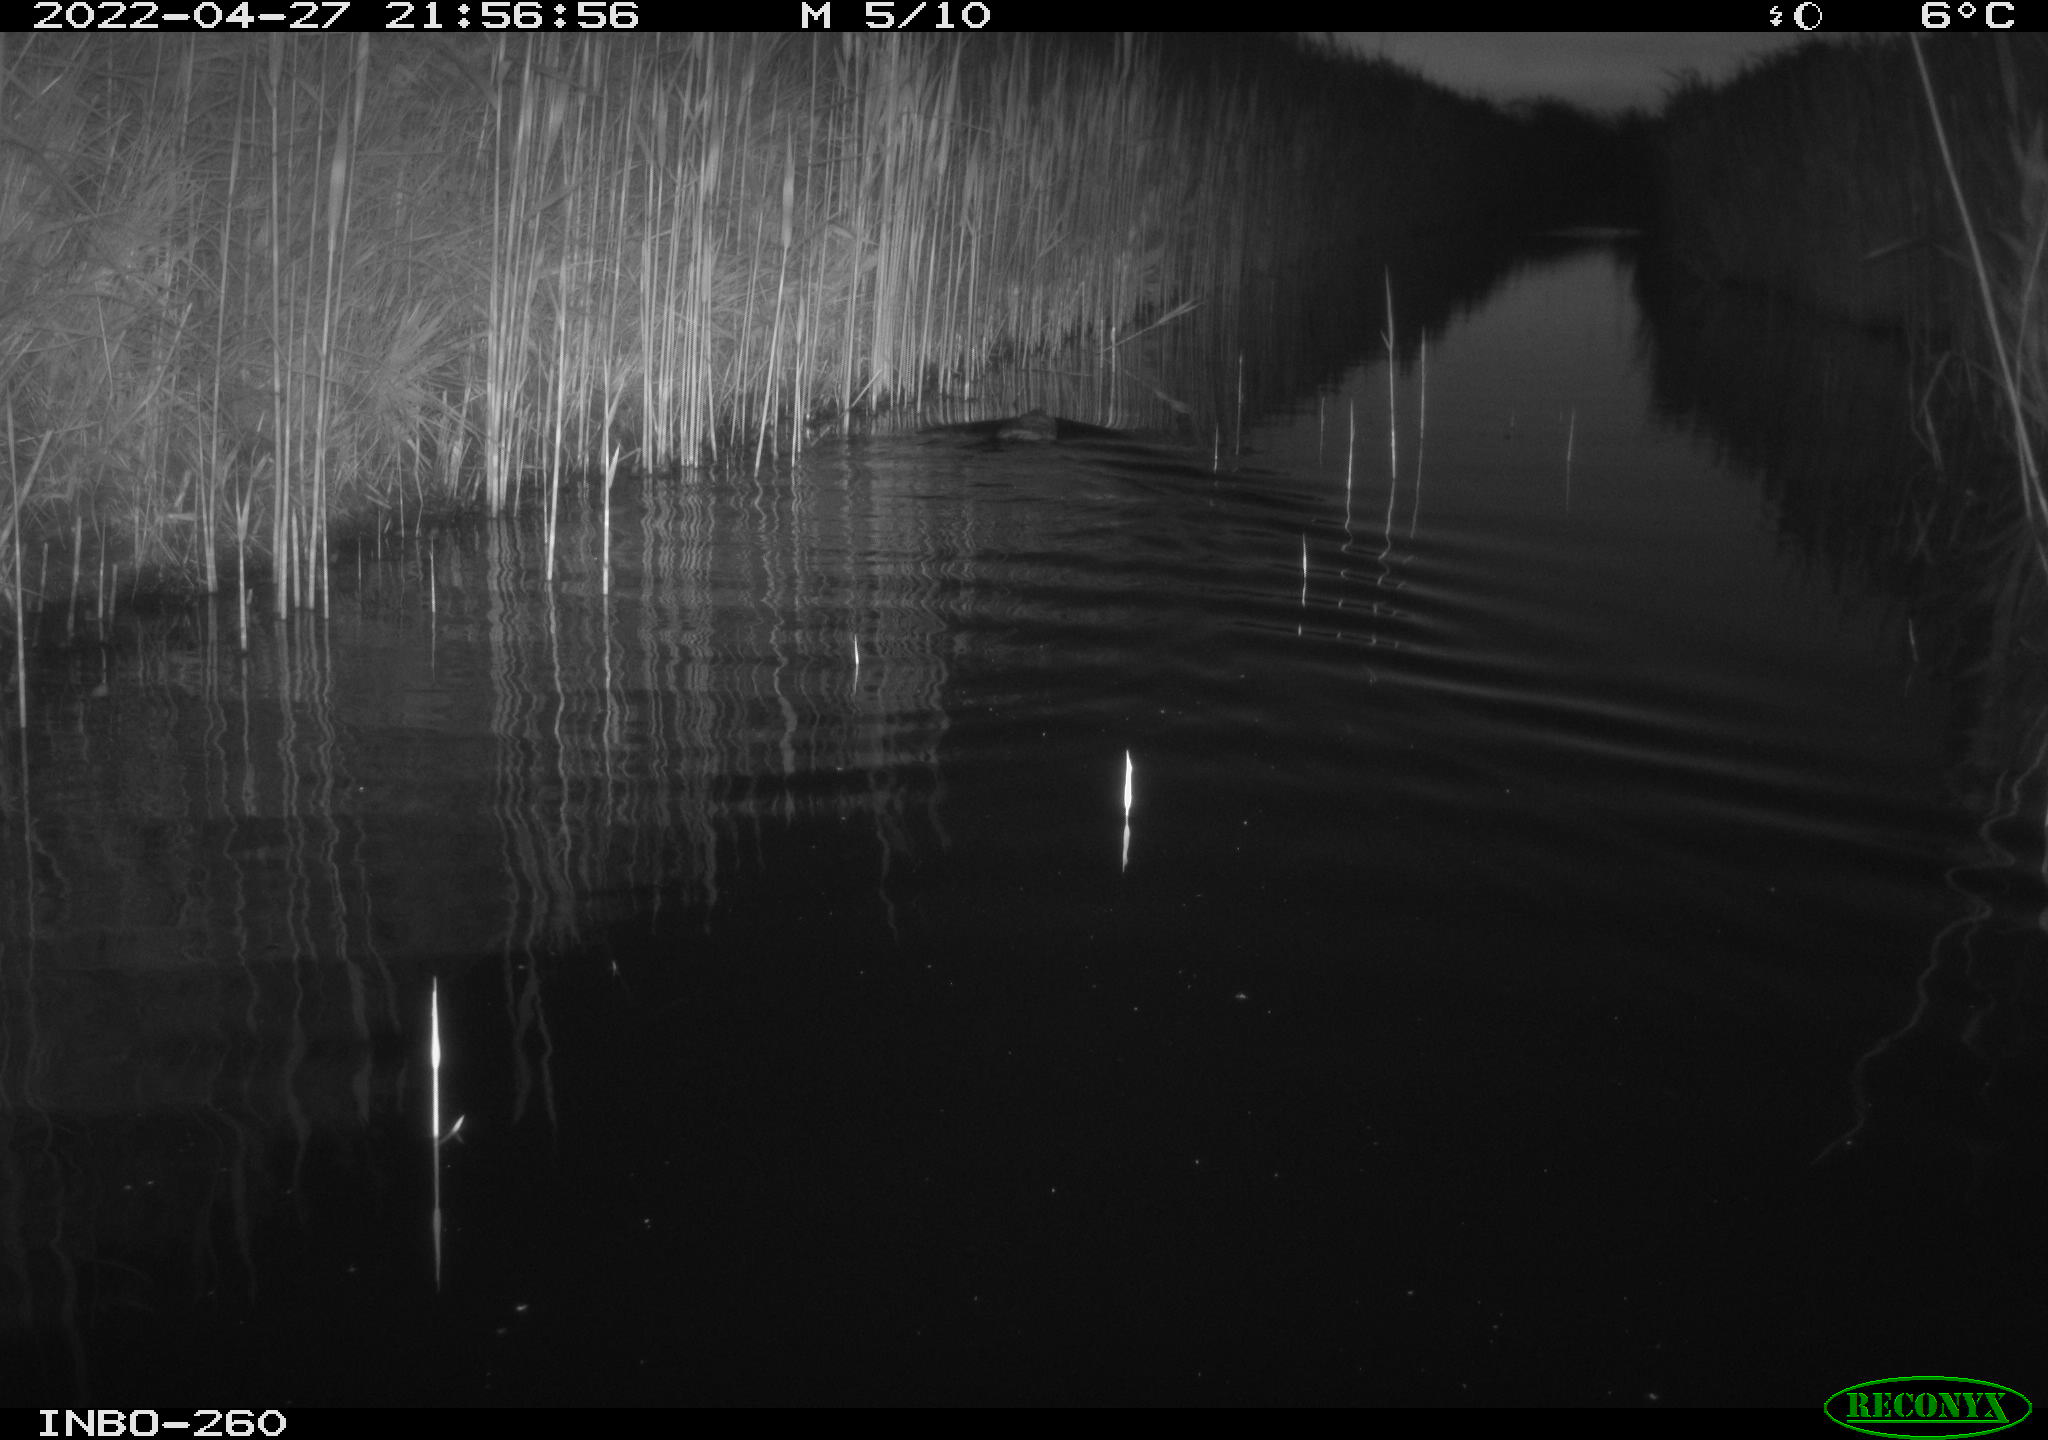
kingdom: Animalia
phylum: Chordata
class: Mammalia
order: Rodentia
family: Cricetidae
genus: Ondatra
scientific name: Ondatra zibethicus
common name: Muskrat
